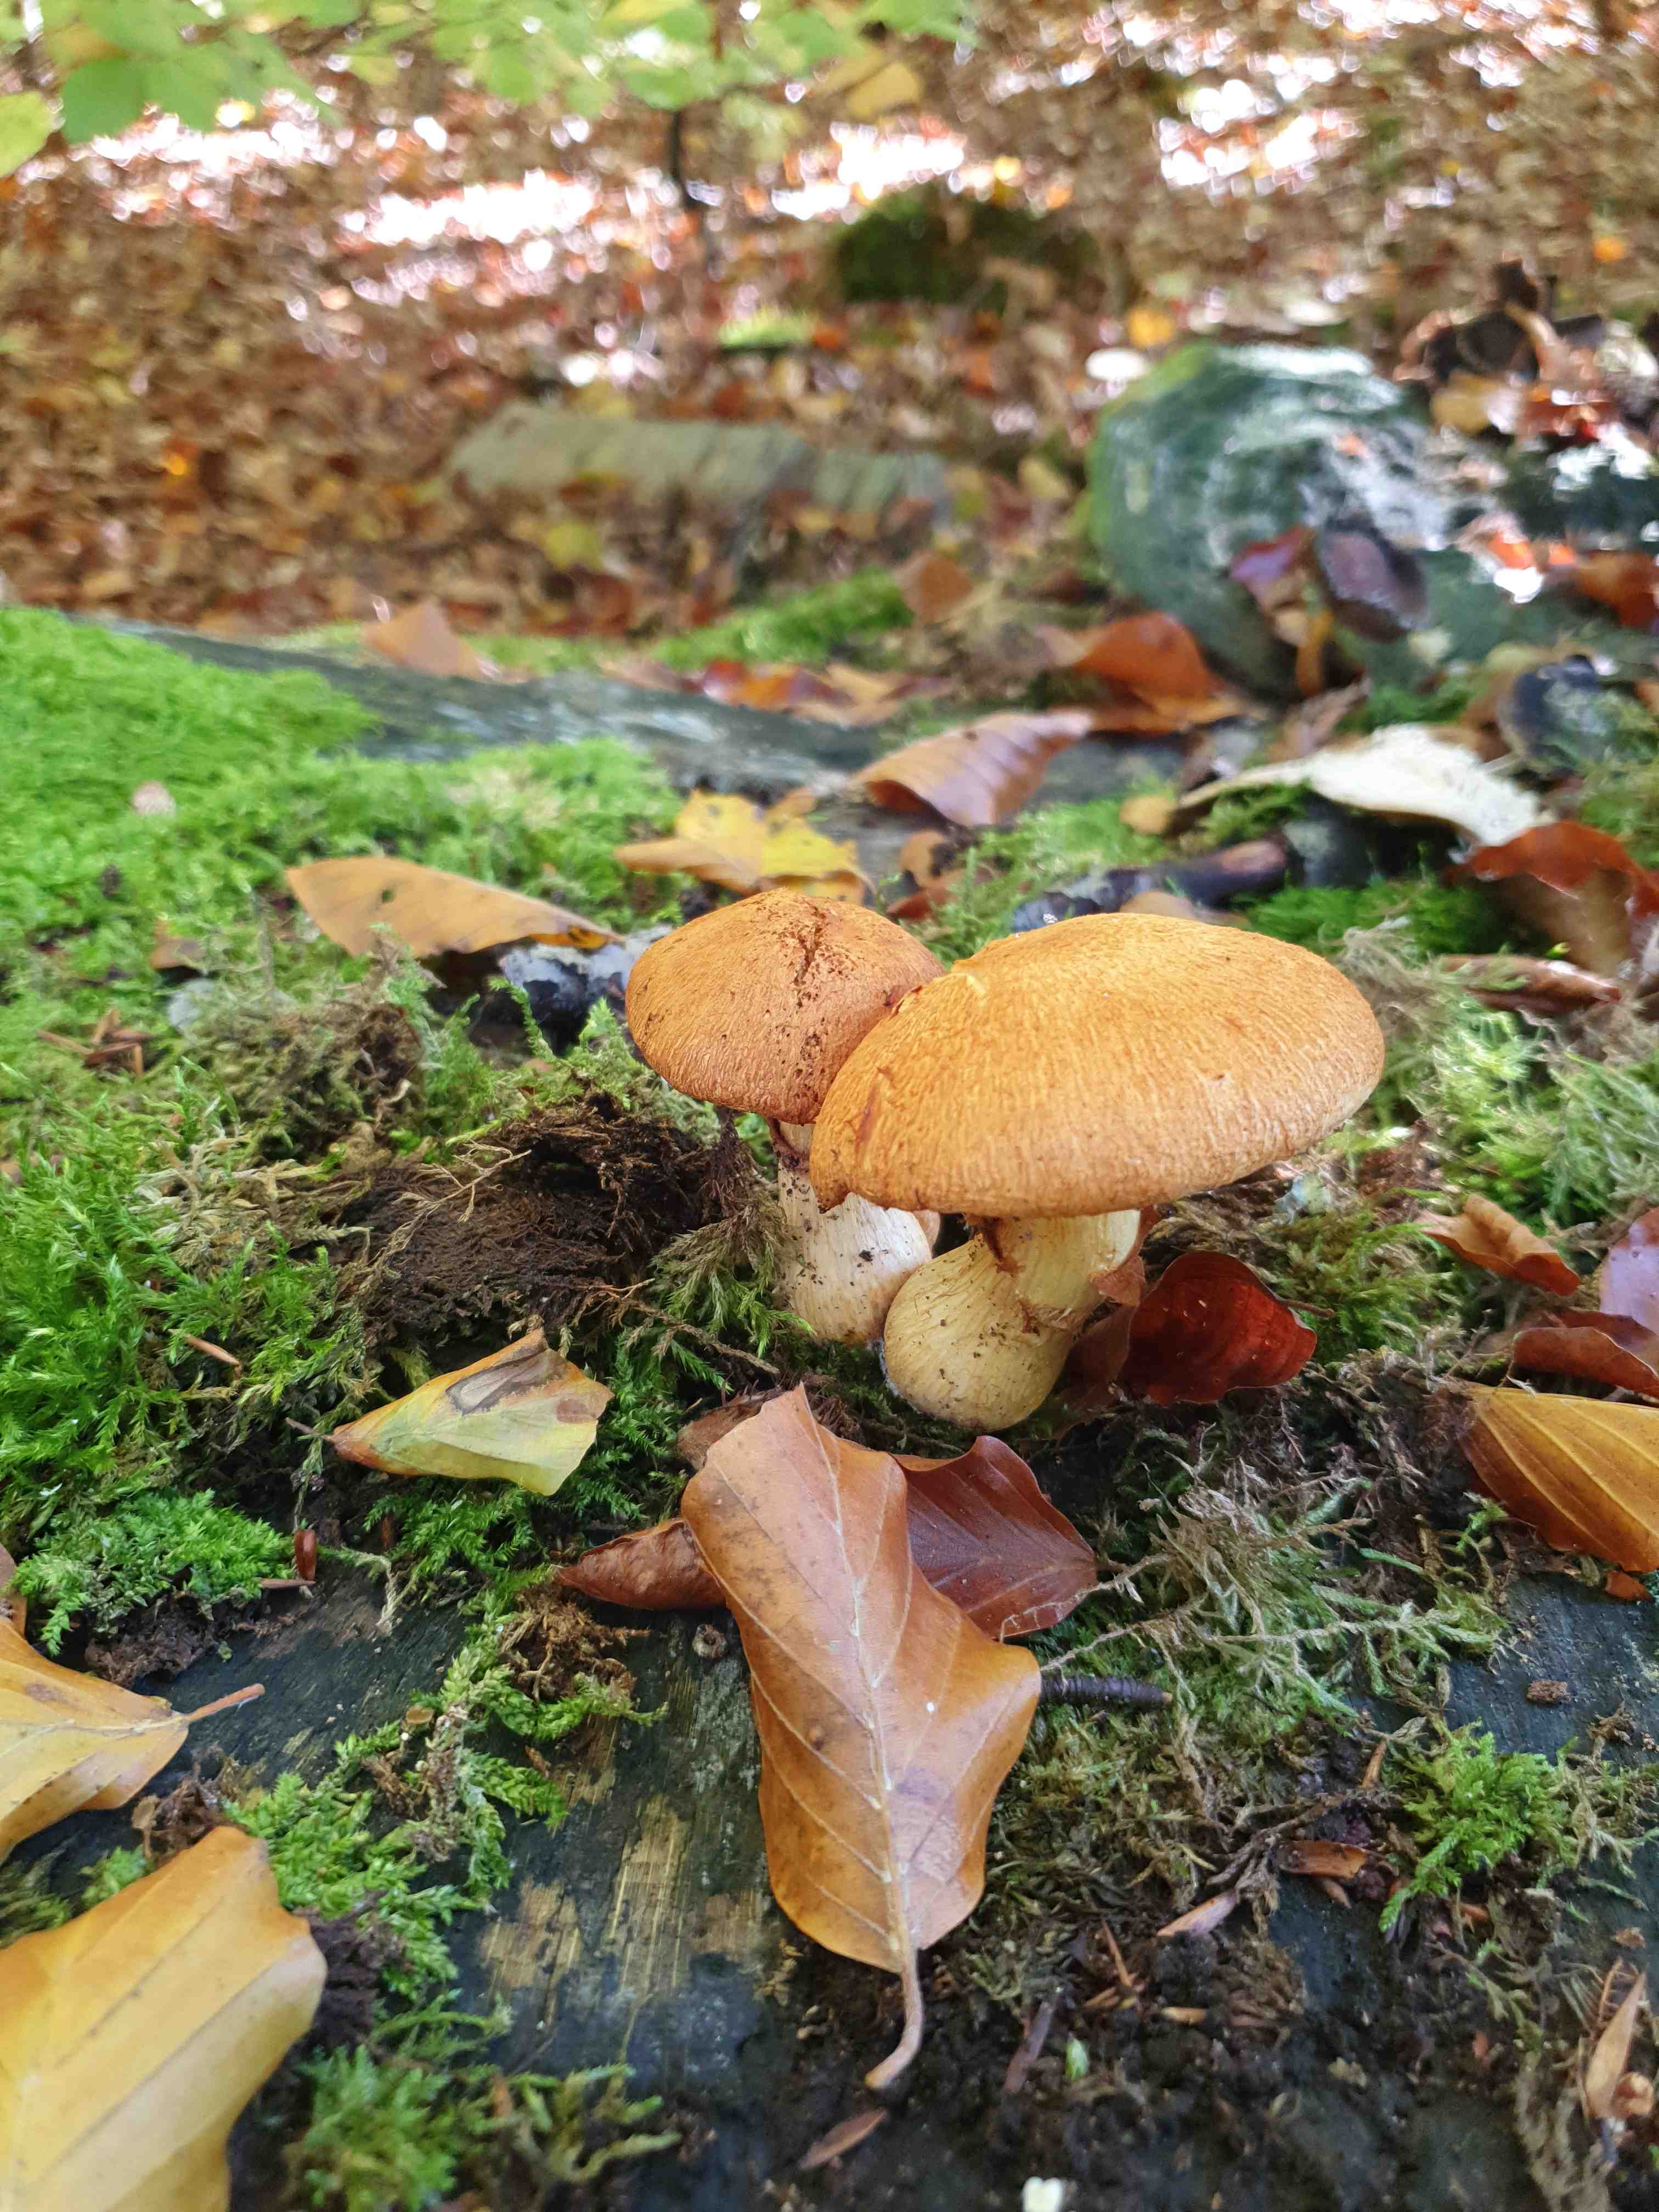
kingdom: Fungi
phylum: Basidiomycota
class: Agaricomycetes
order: Agaricales
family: Hymenogastraceae
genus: Gymnopilus
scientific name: Gymnopilus spectabilis
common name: fibret flammehat
